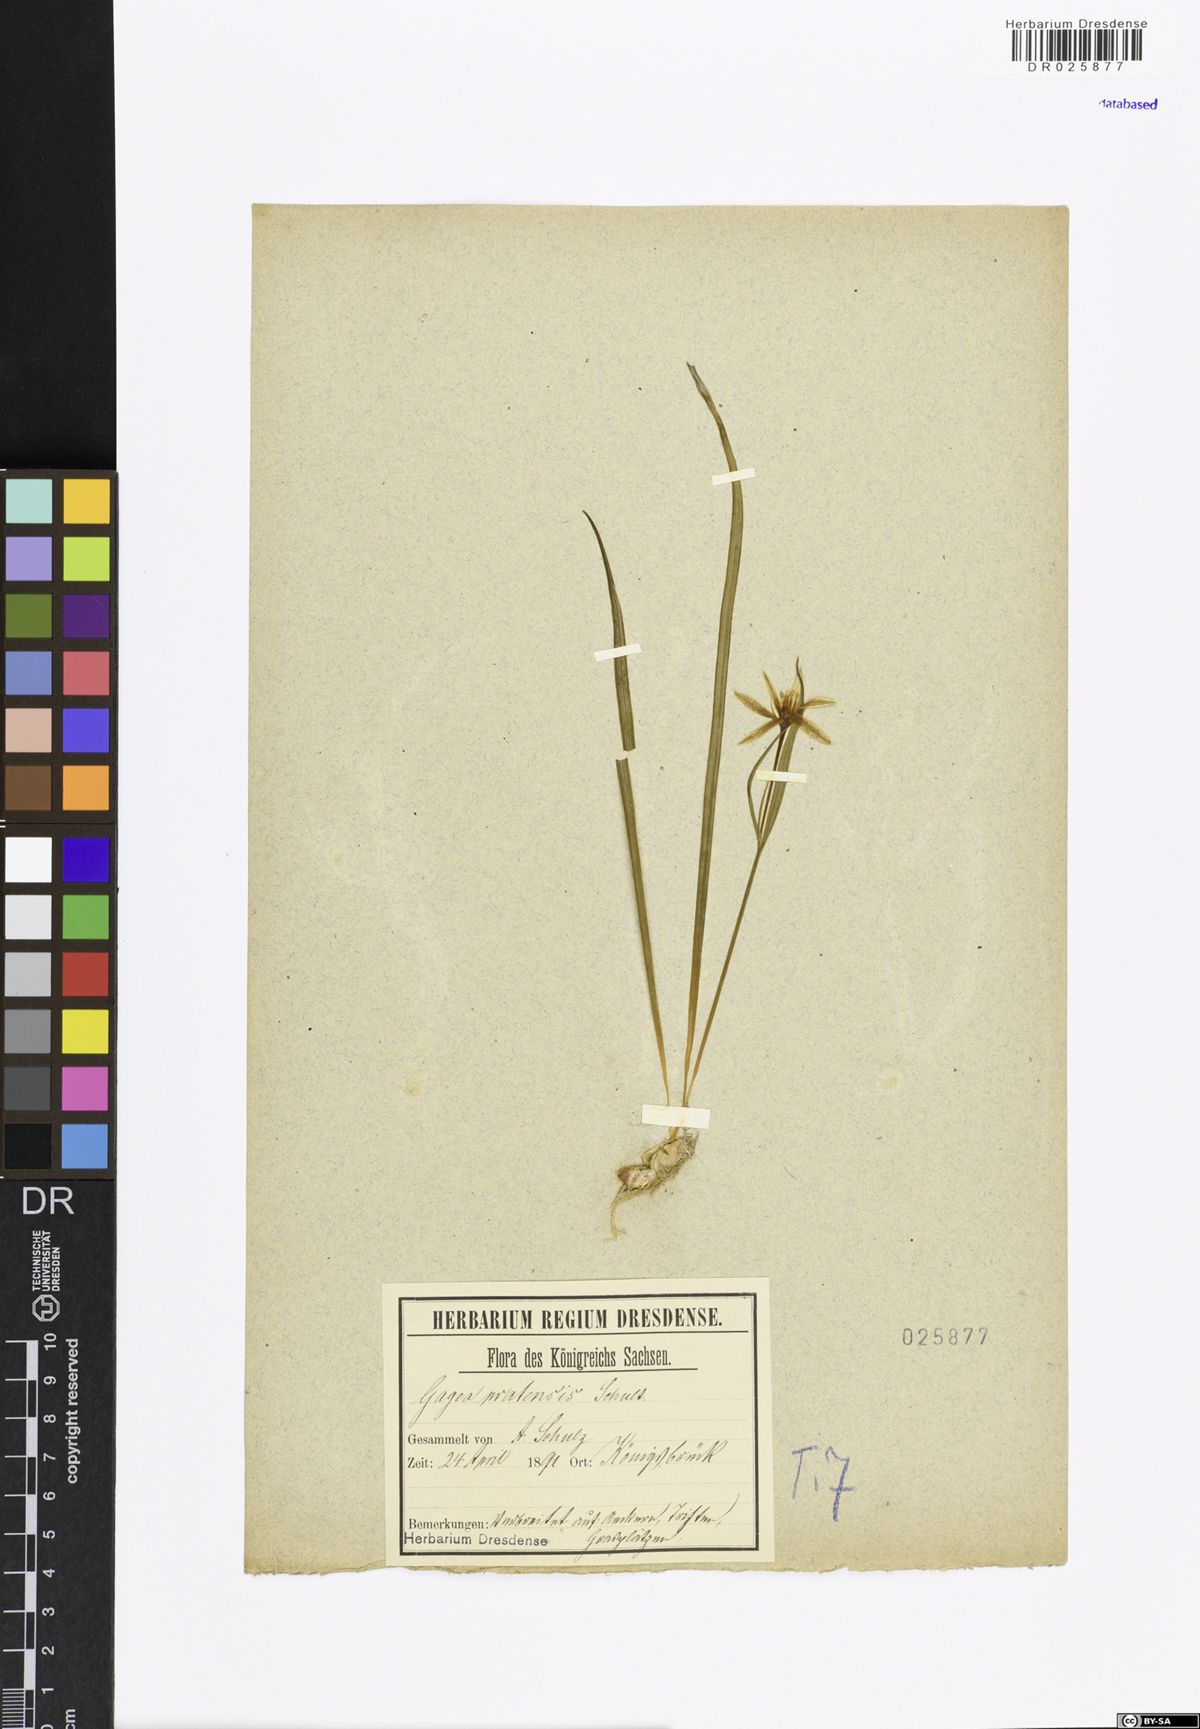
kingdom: Plantae
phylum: Tracheophyta
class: Liliopsida
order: Liliales
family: Liliaceae
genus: Gagea
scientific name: Gagea pratensis
